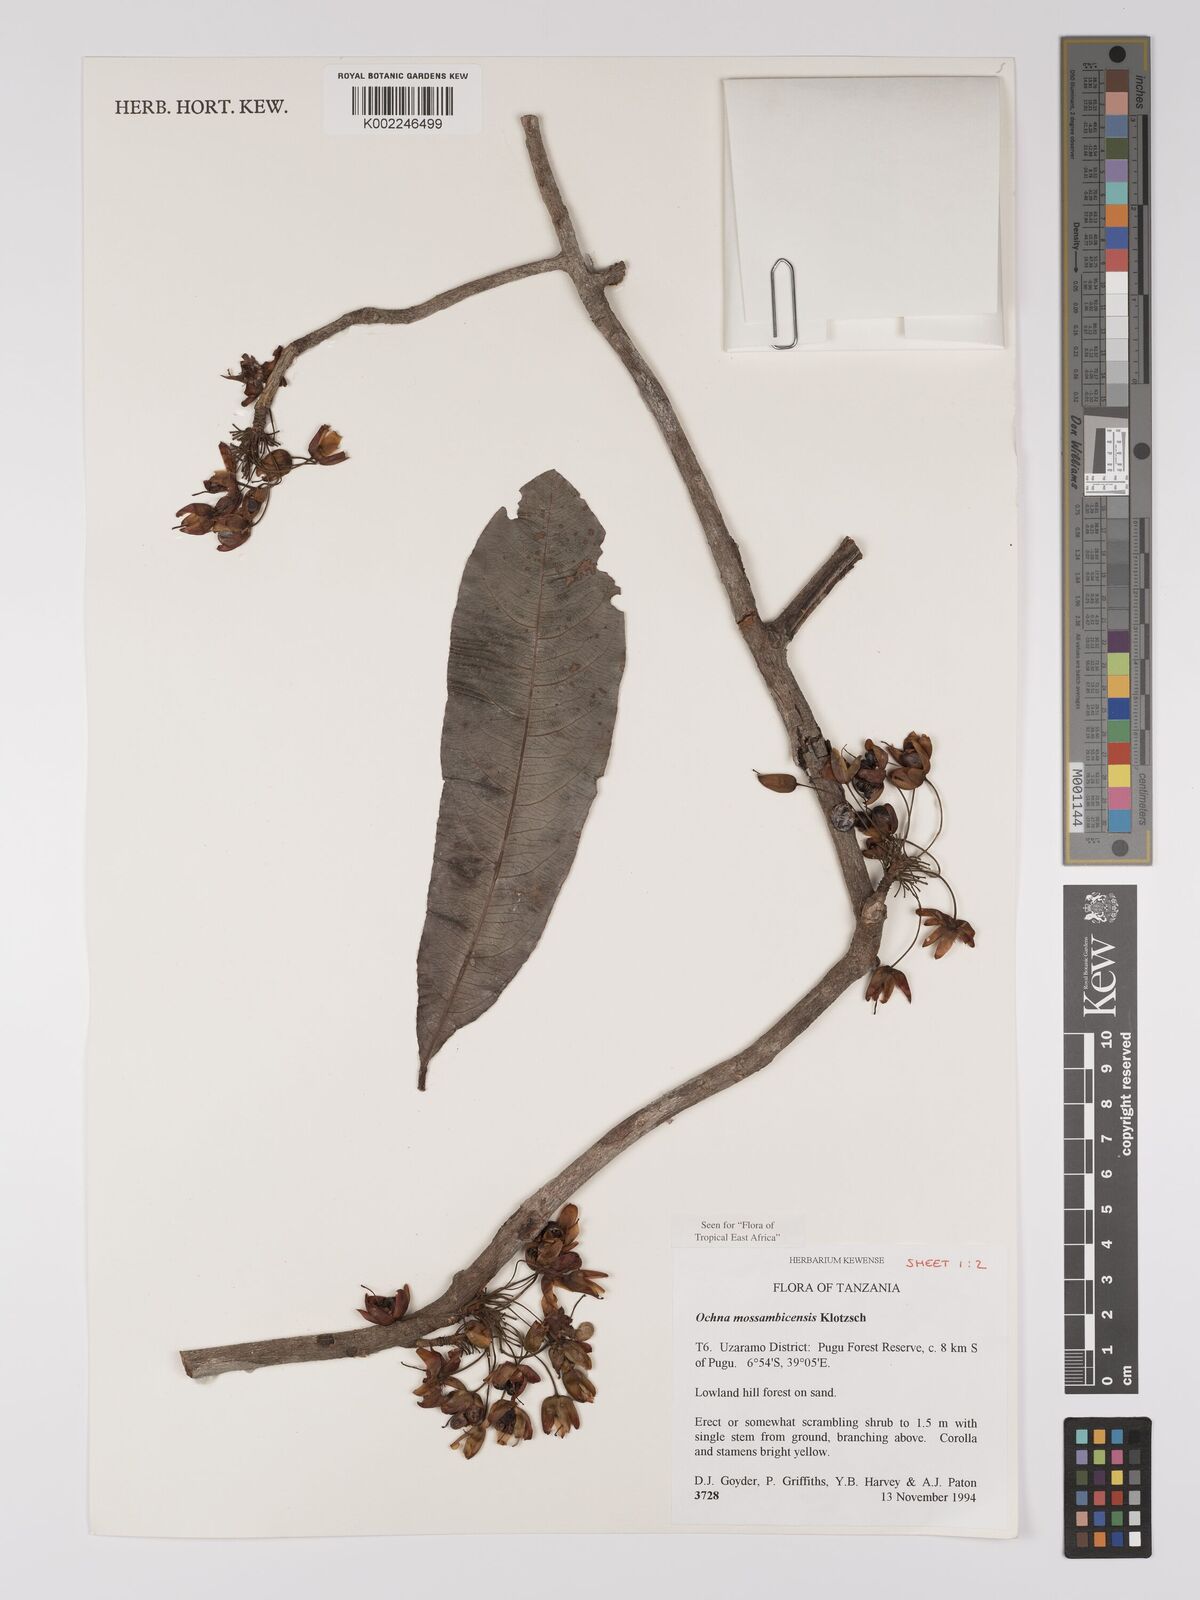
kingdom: Plantae
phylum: Tracheophyta
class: Magnoliopsida
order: Malpighiales
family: Ochnaceae
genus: Ochna
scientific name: Ochna atropurpurea
